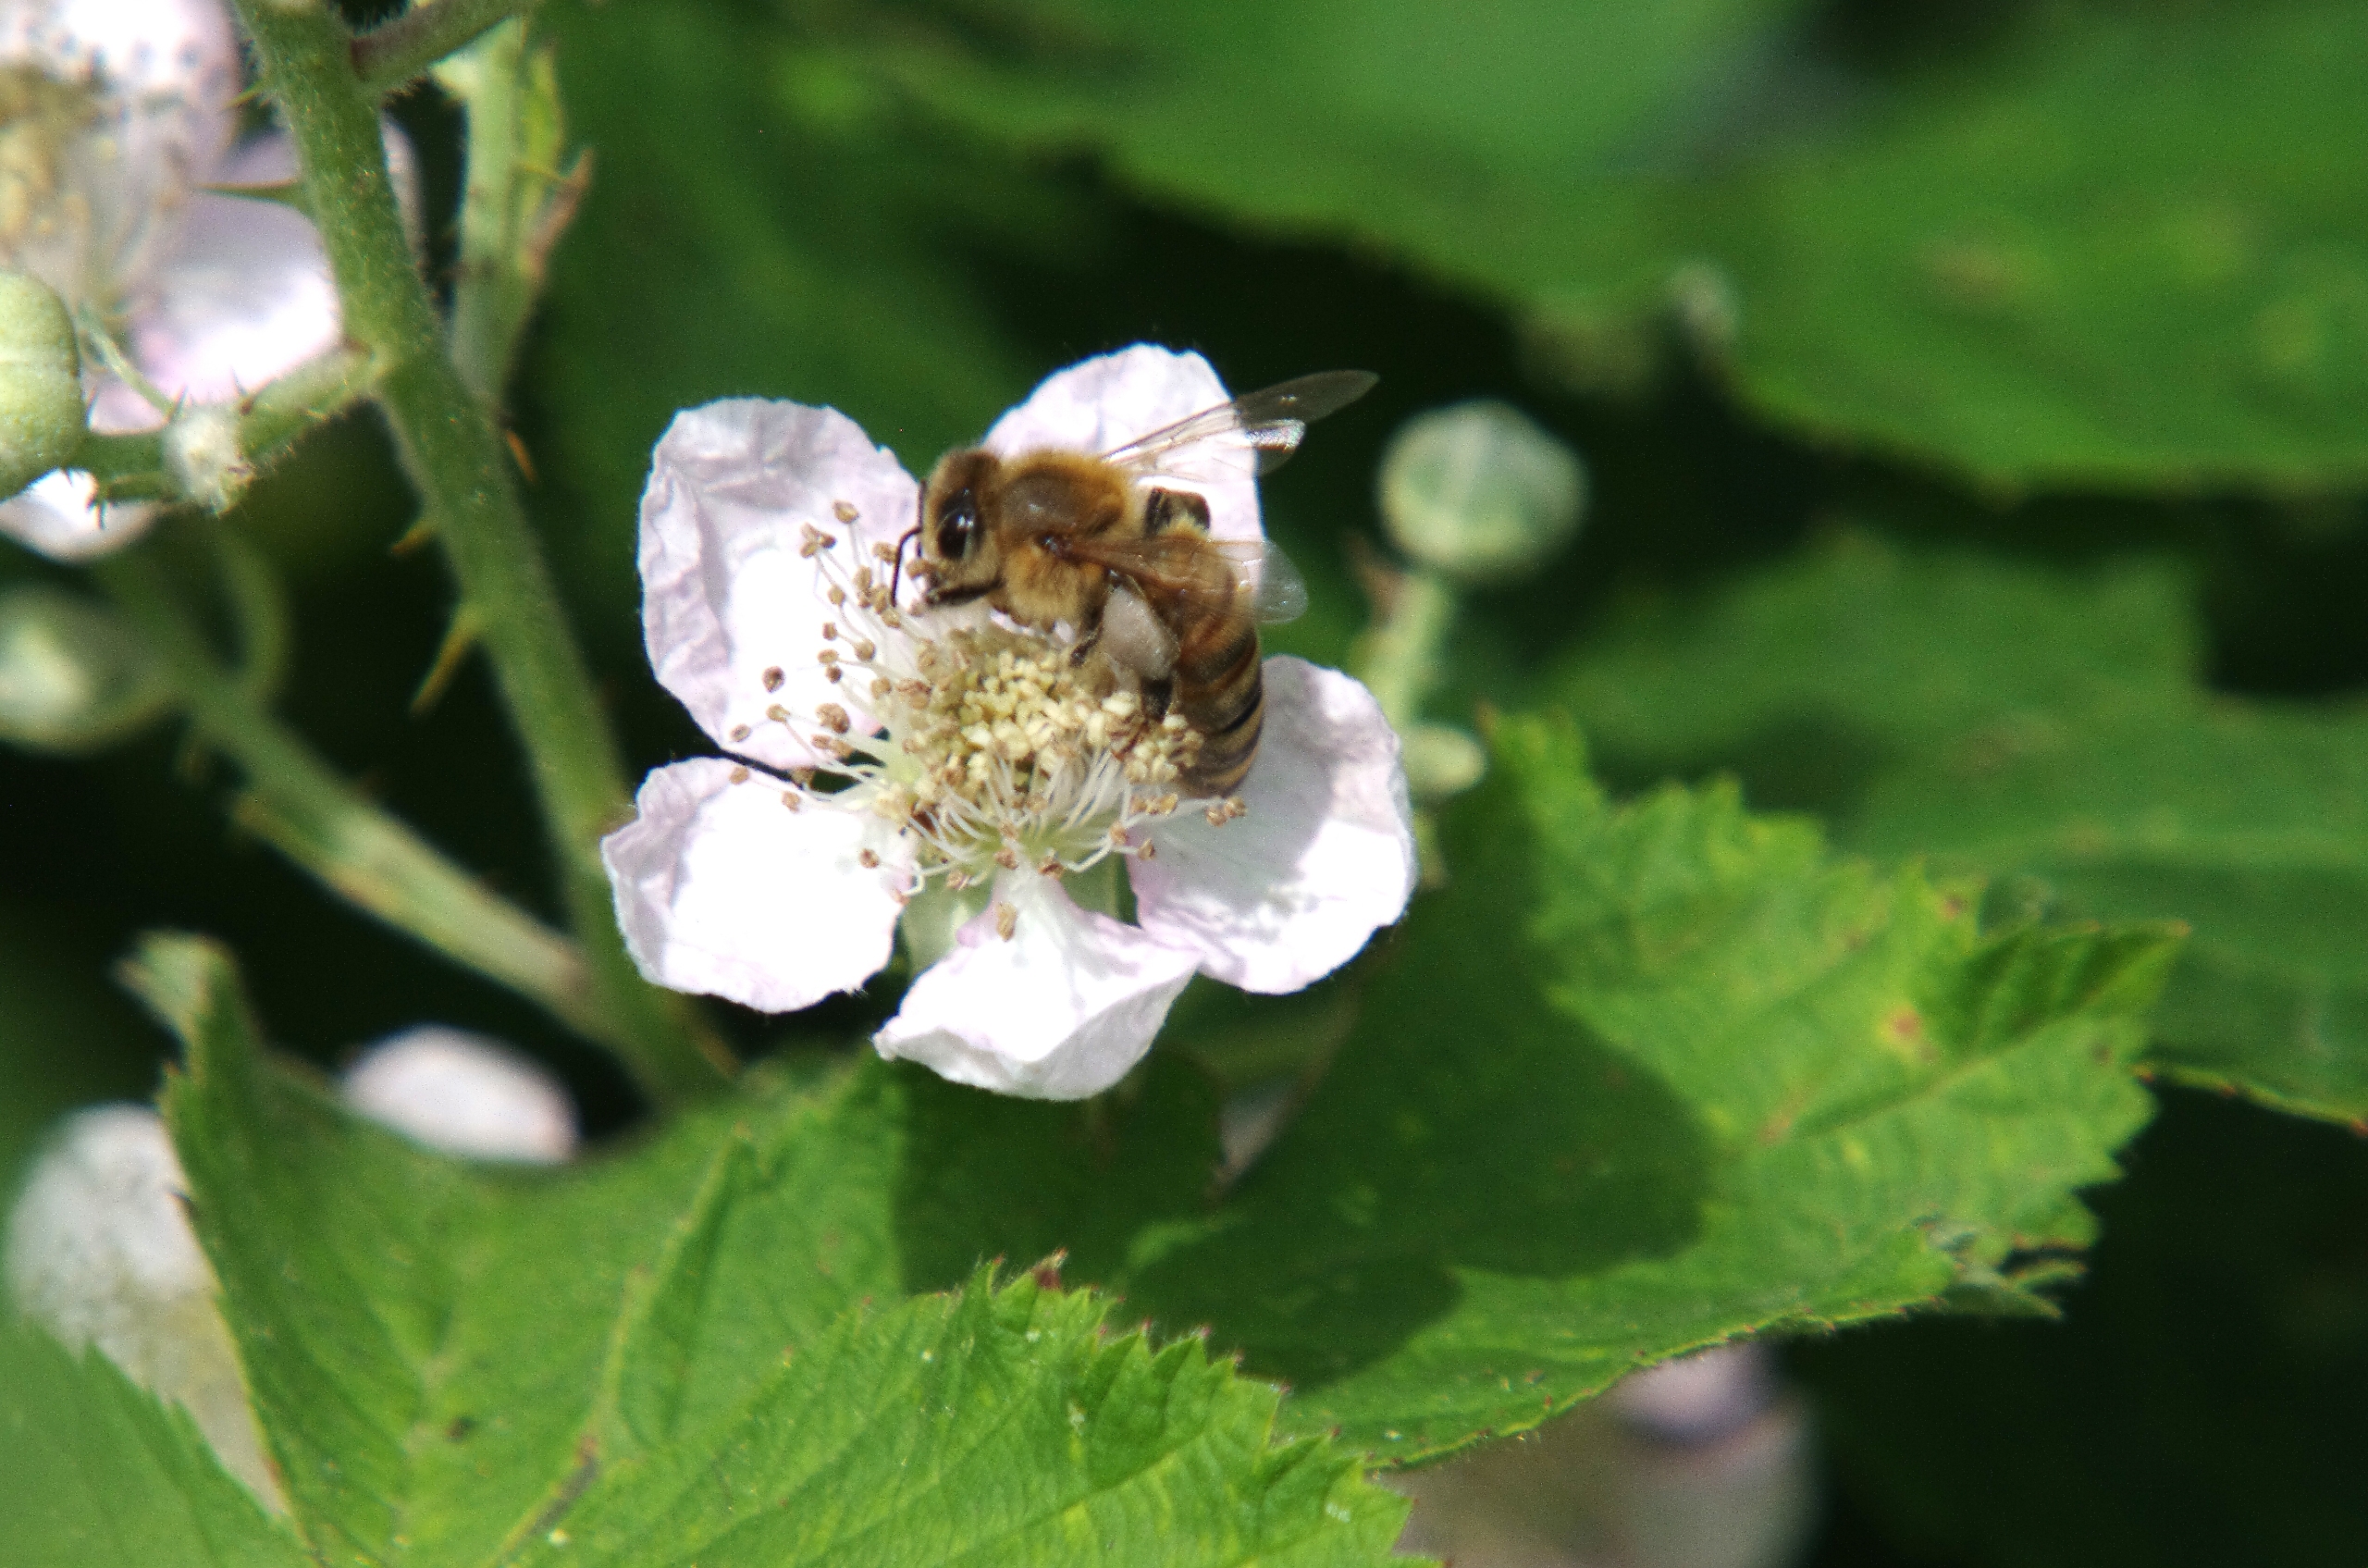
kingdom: Animalia
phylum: Arthropoda
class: Insecta
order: Hymenoptera
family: Apidae
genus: Apis
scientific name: Apis mellifera
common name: Honningbi
